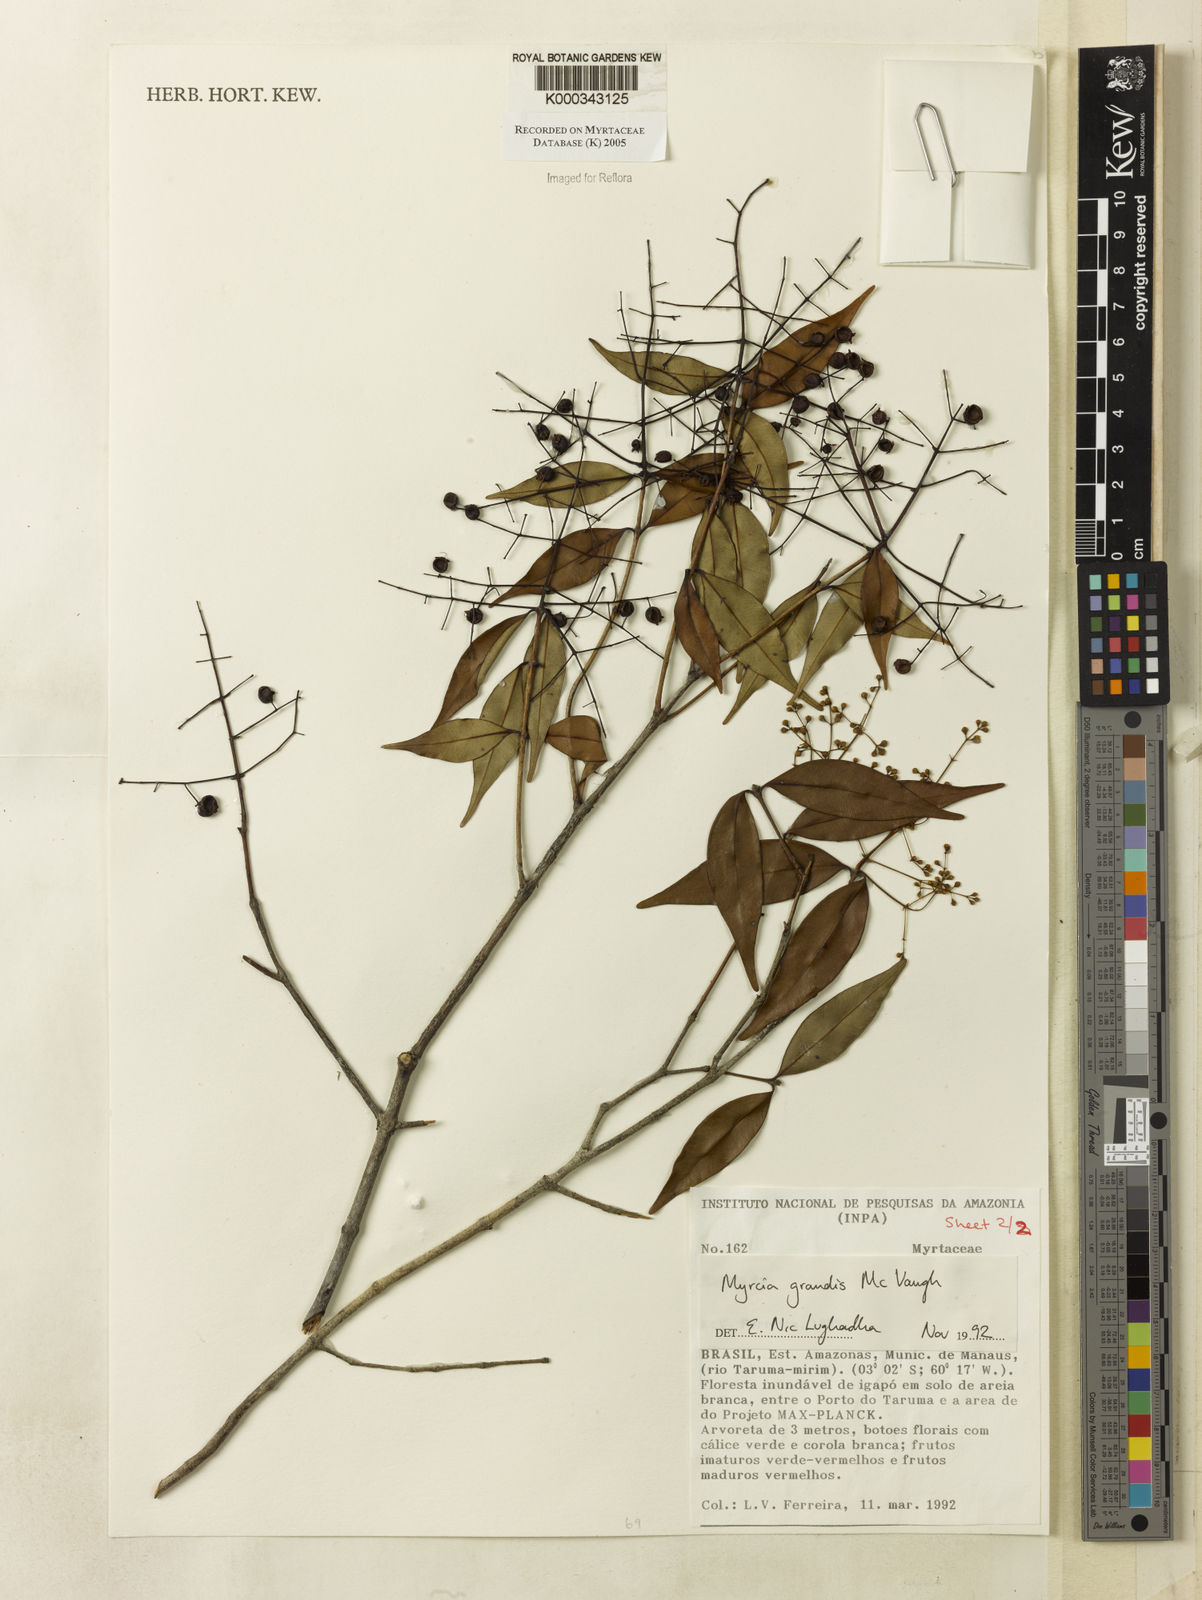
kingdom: Plantae
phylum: Tracheophyta
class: Magnoliopsida
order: Myrtales
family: Myrtaceae
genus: Myrcia
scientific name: Myrcia grandis
